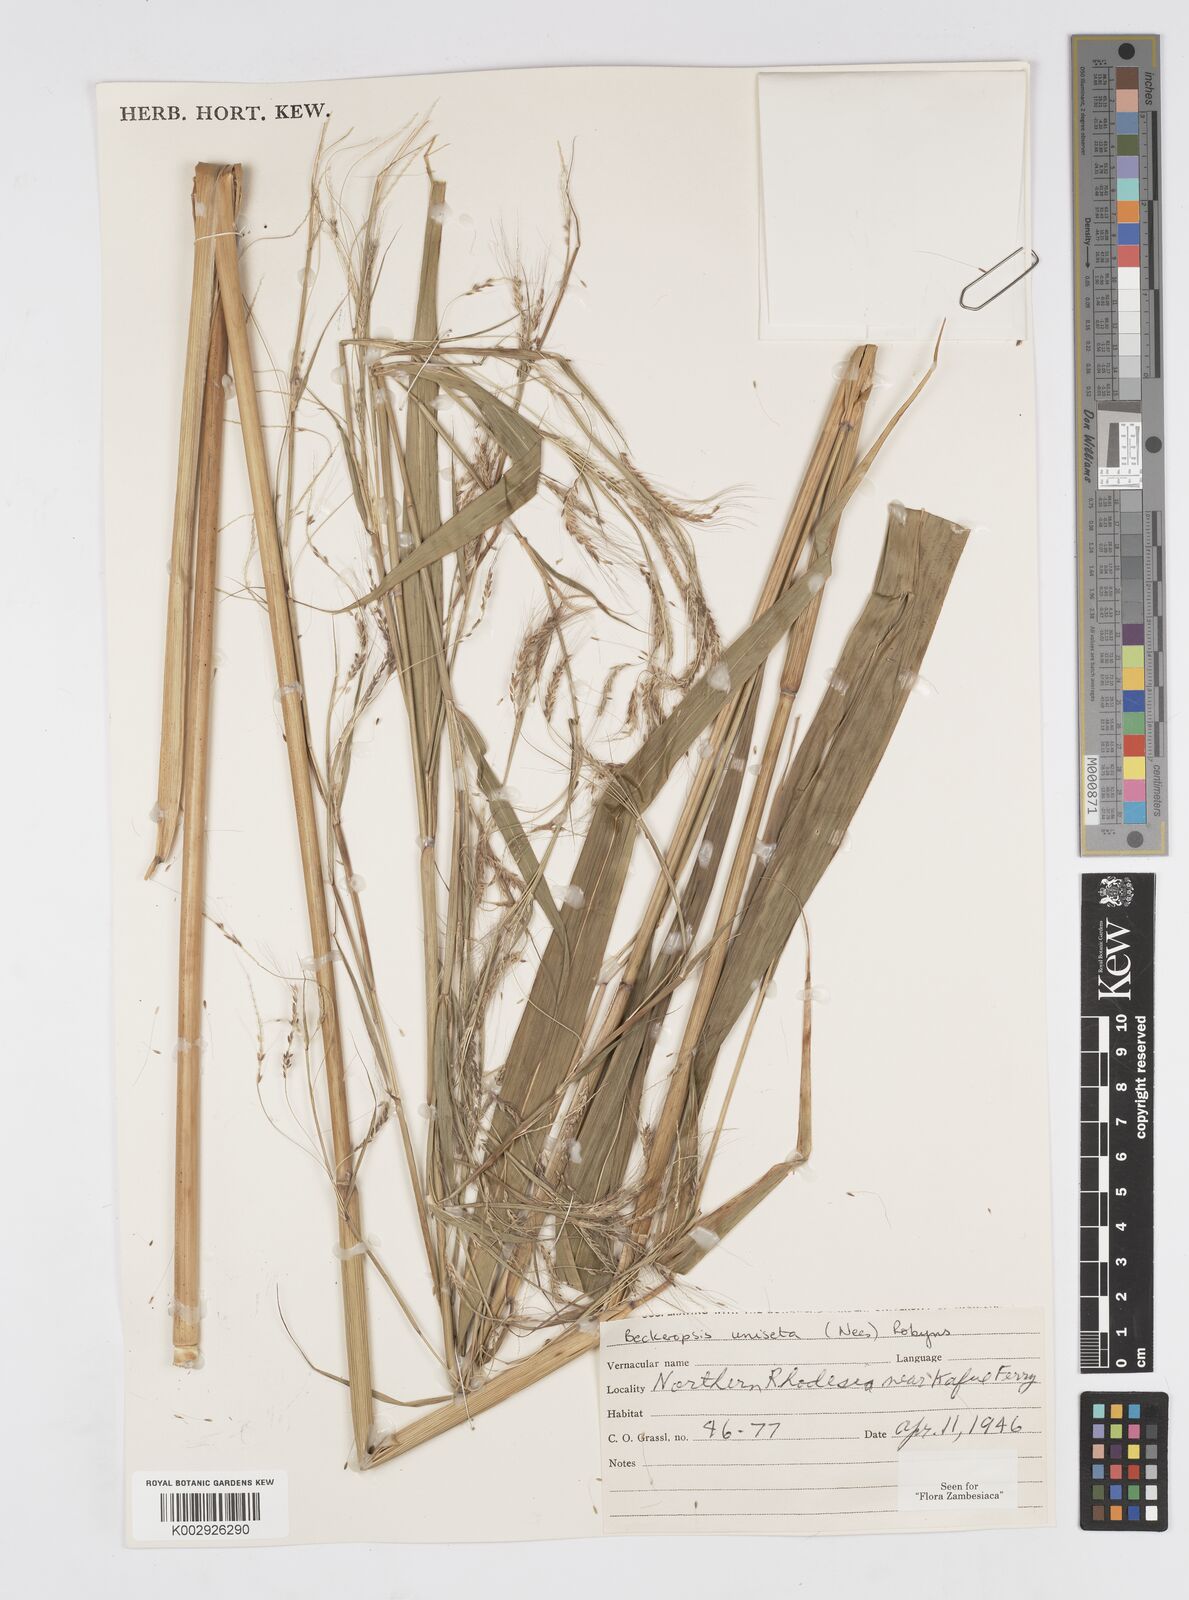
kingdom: Plantae
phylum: Tracheophyta
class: Liliopsida
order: Poales
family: Poaceae
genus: Cenchrus
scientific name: Cenchrus unisetus
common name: Natal grass
